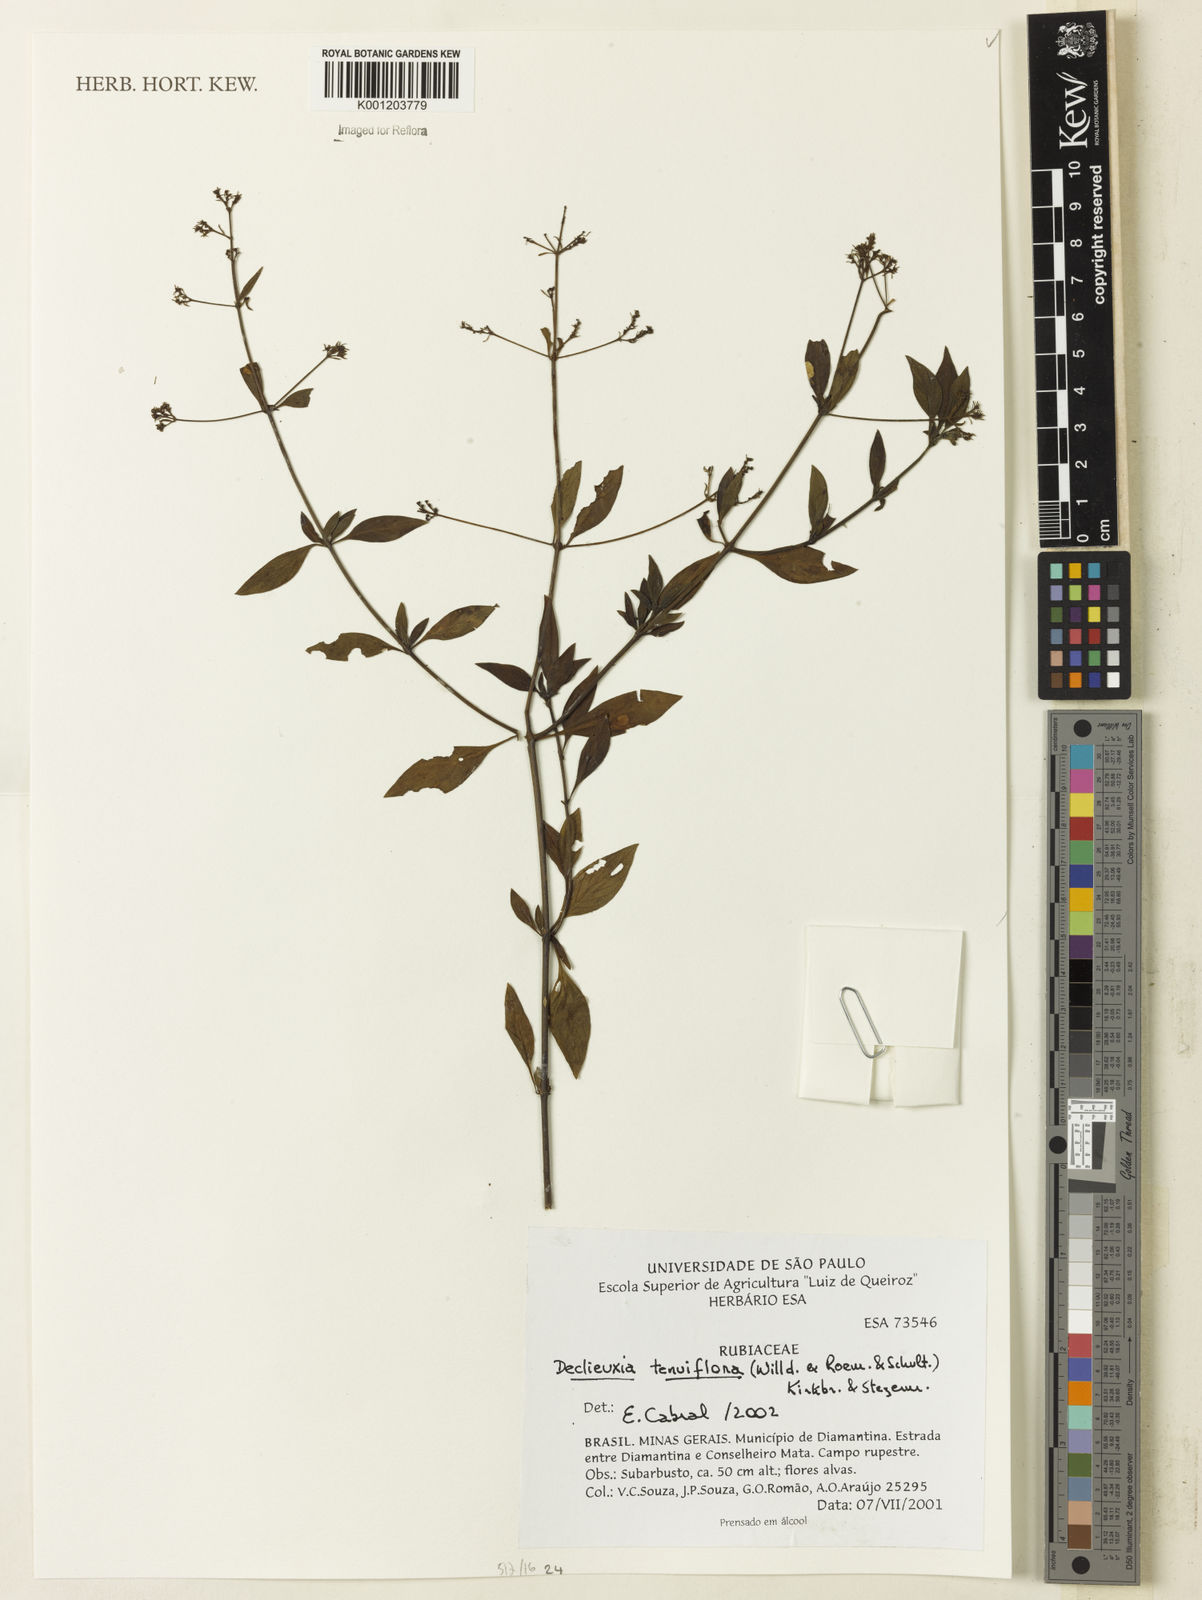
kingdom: Plantae
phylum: Tracheophyta
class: Magnoliopsida
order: Gentianales
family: Rubiaceae
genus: Declieuxia
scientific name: Declieuxia tenuiflora
